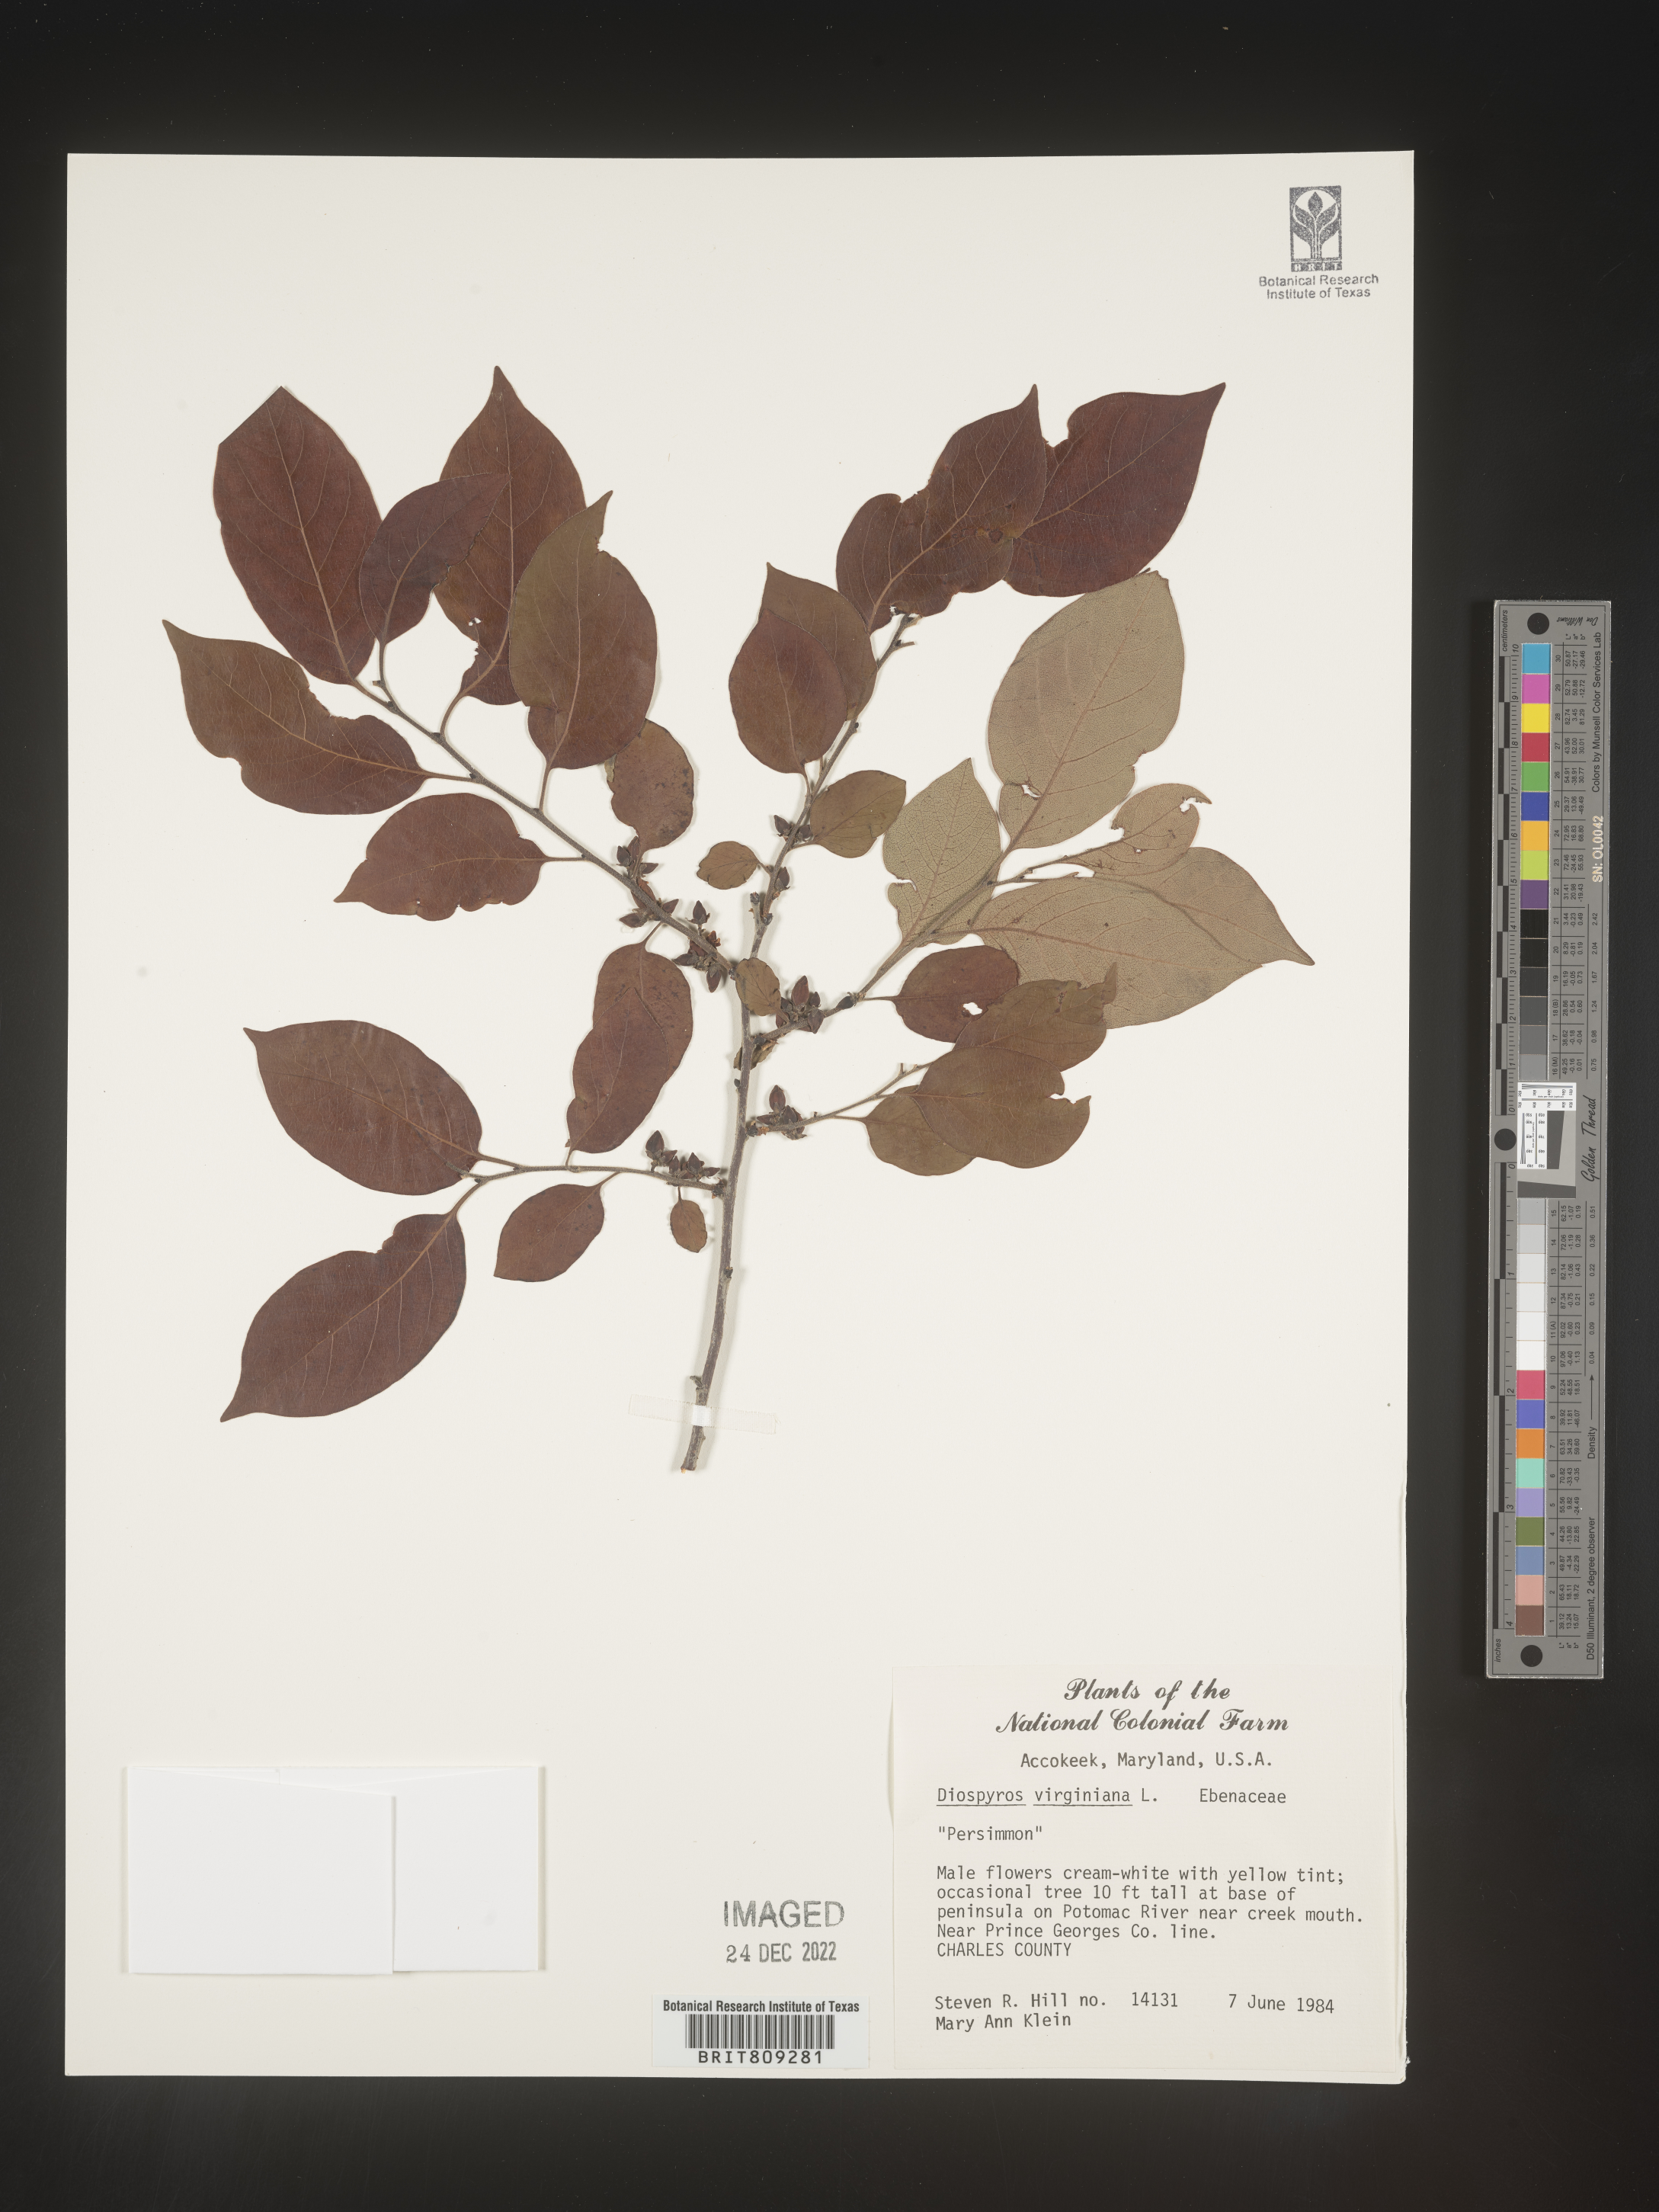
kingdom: Plantae
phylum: Tracheophyta
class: Magnoliopsida
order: Ericales
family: Ebenaceae
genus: Diospyros
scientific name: Diospyros virginiana
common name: Persimmon
